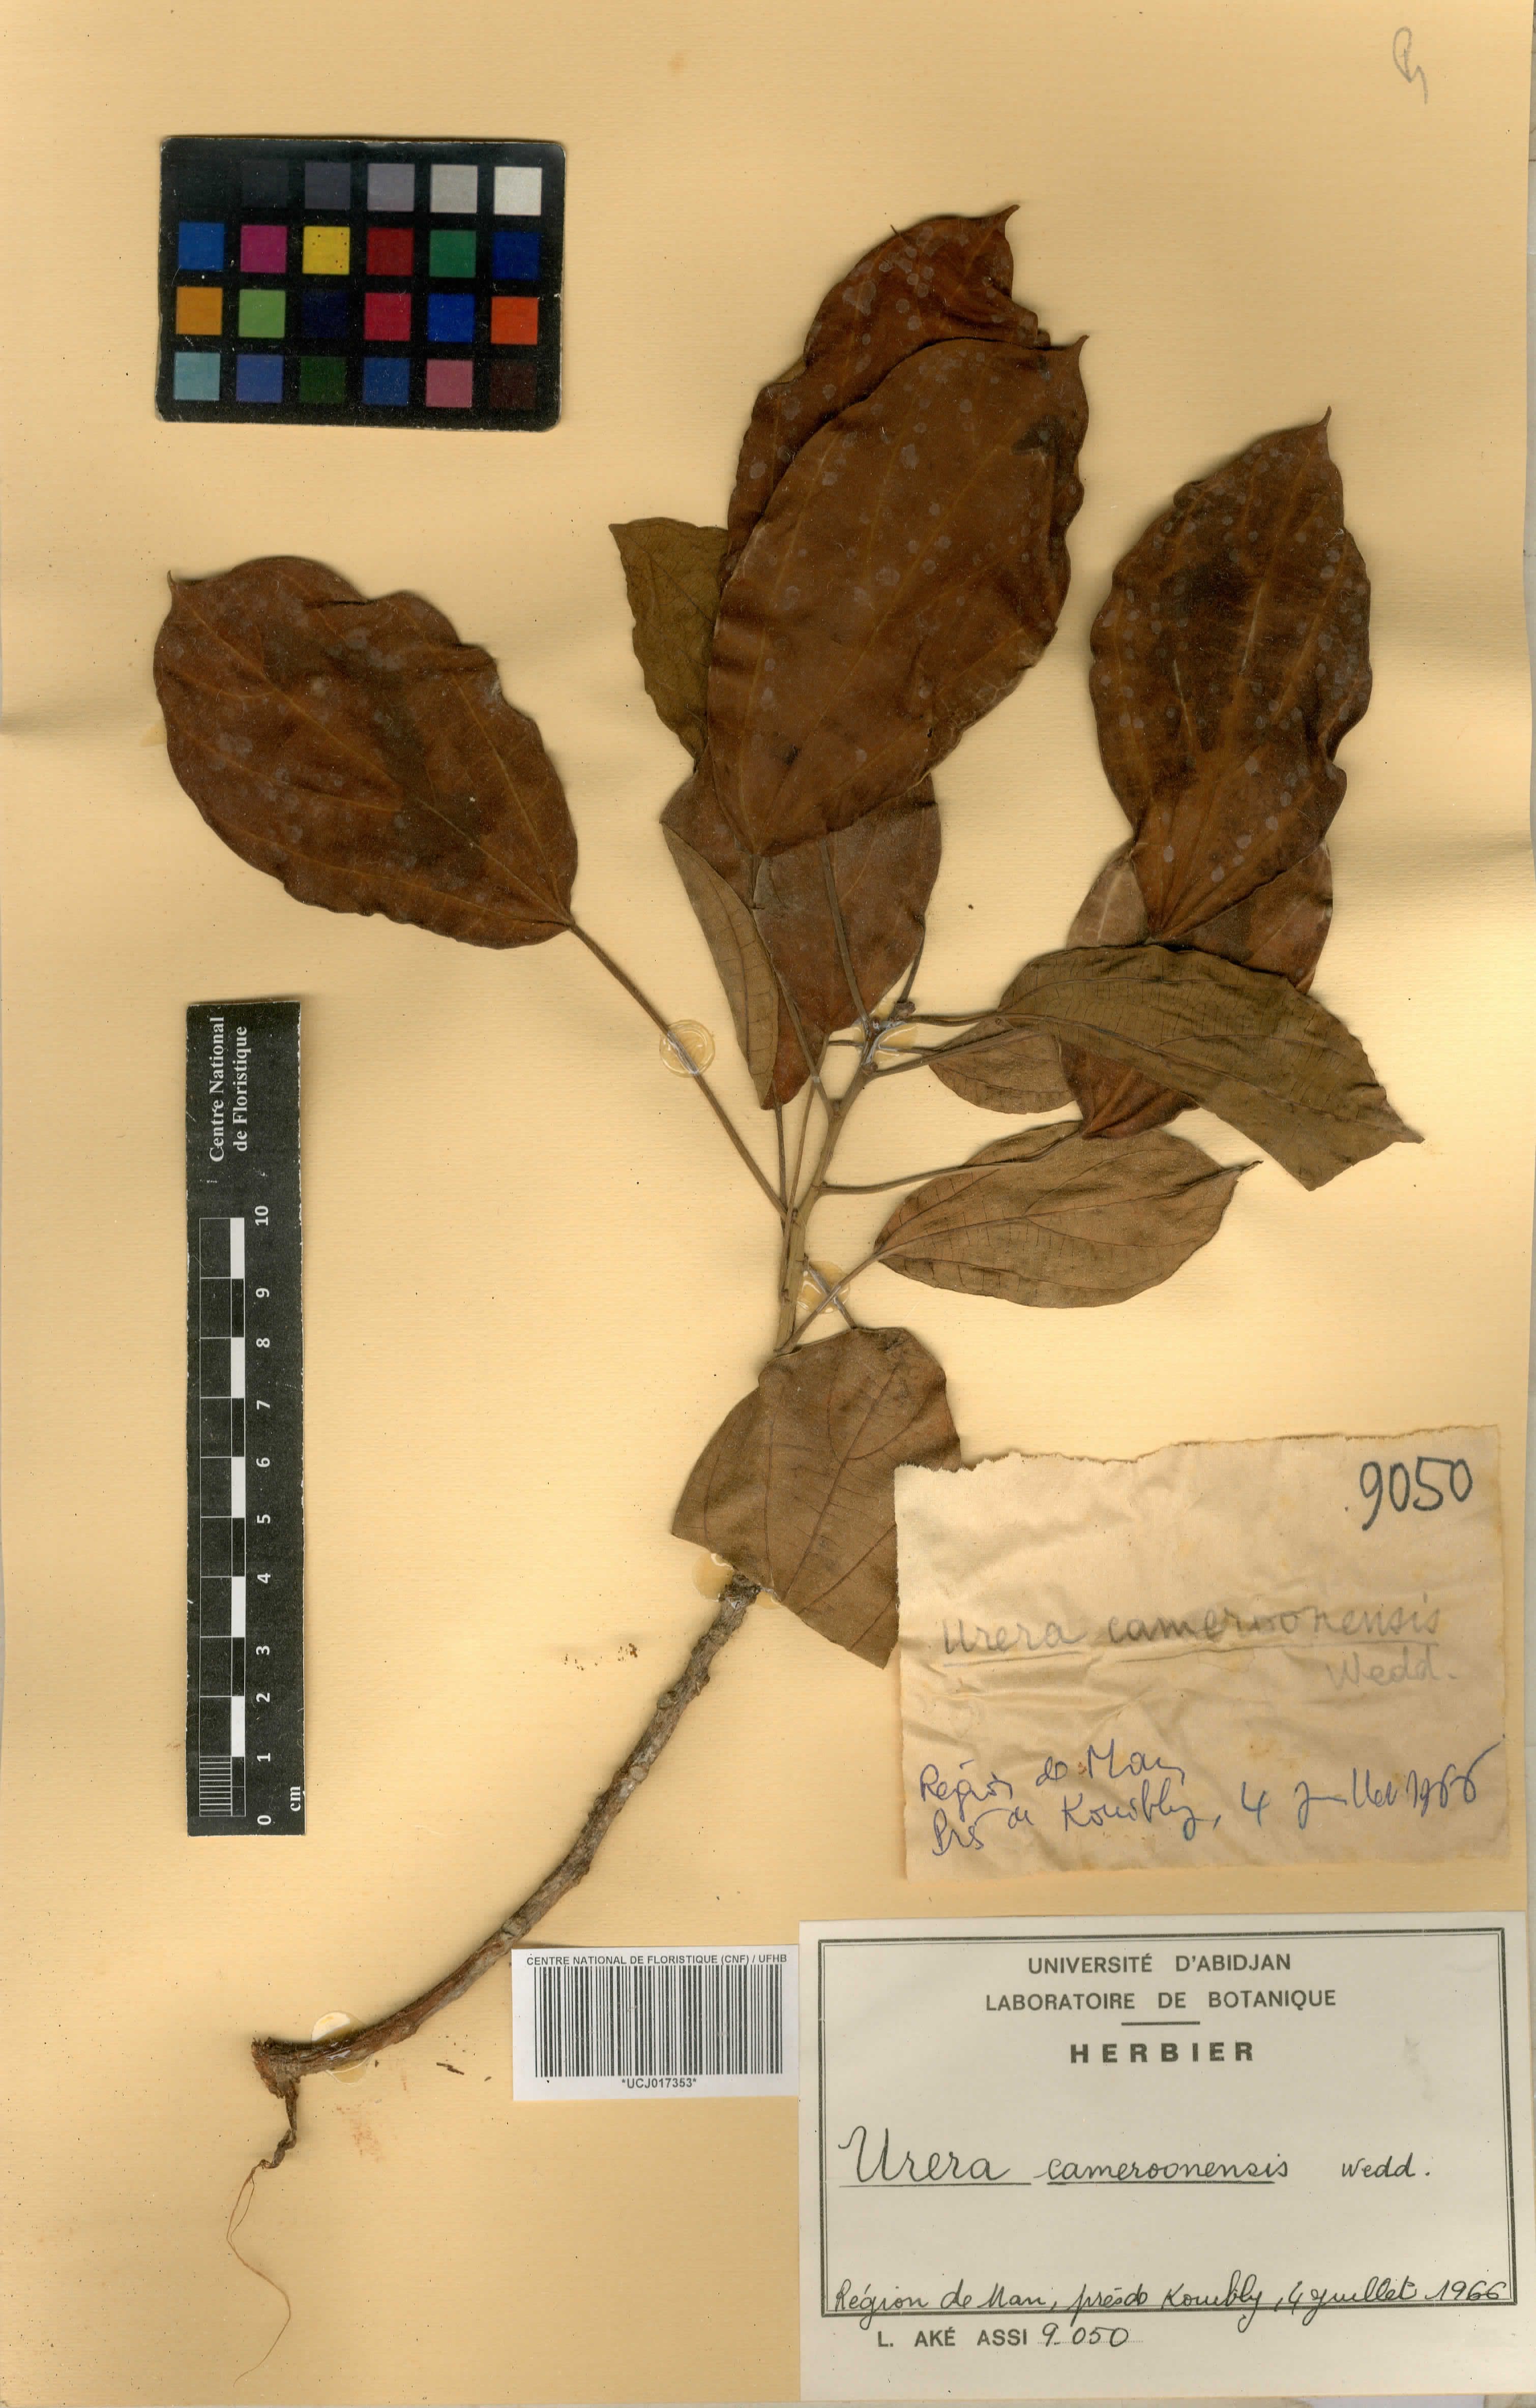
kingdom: Plantae
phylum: Tracheophyta
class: Magnoliopsida
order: Rosales
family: Urticaceae
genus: Scepocarpus
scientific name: Scepocarpus trinervis
